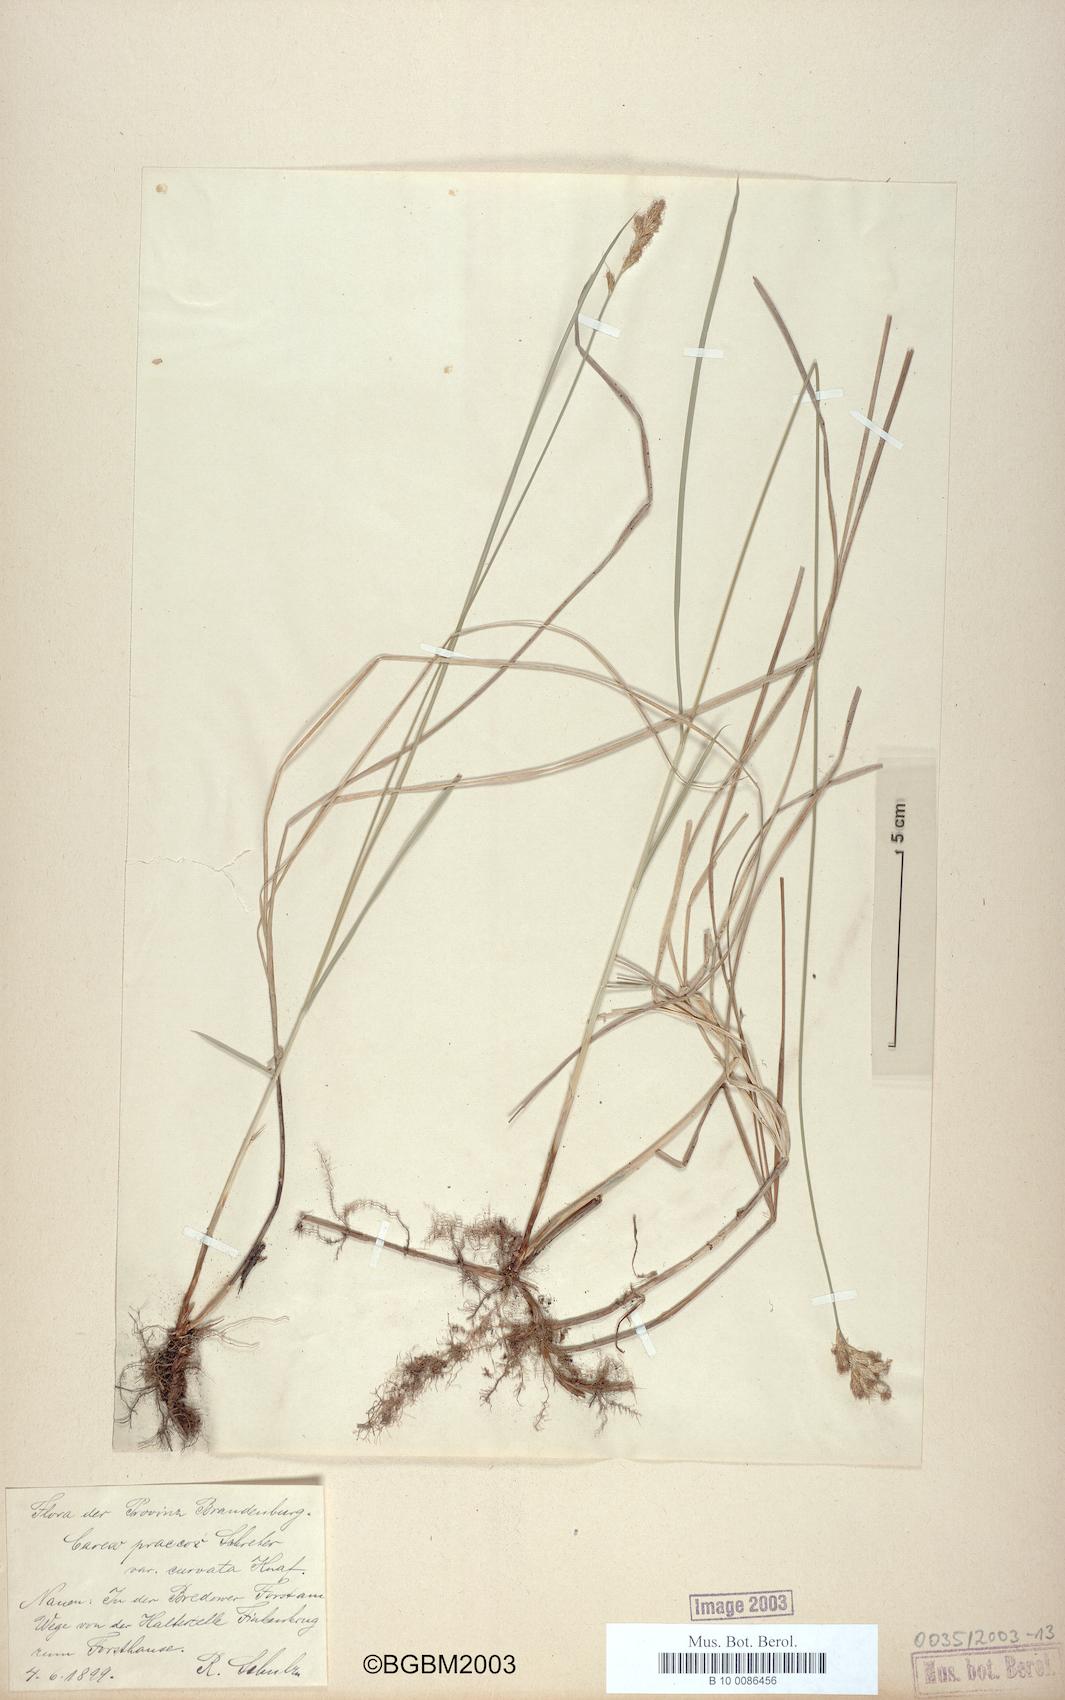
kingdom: Plantae
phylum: Tracheophyta
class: Liliopsida
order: Poales
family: Cyperaceae
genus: Carex
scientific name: Carex curvata
